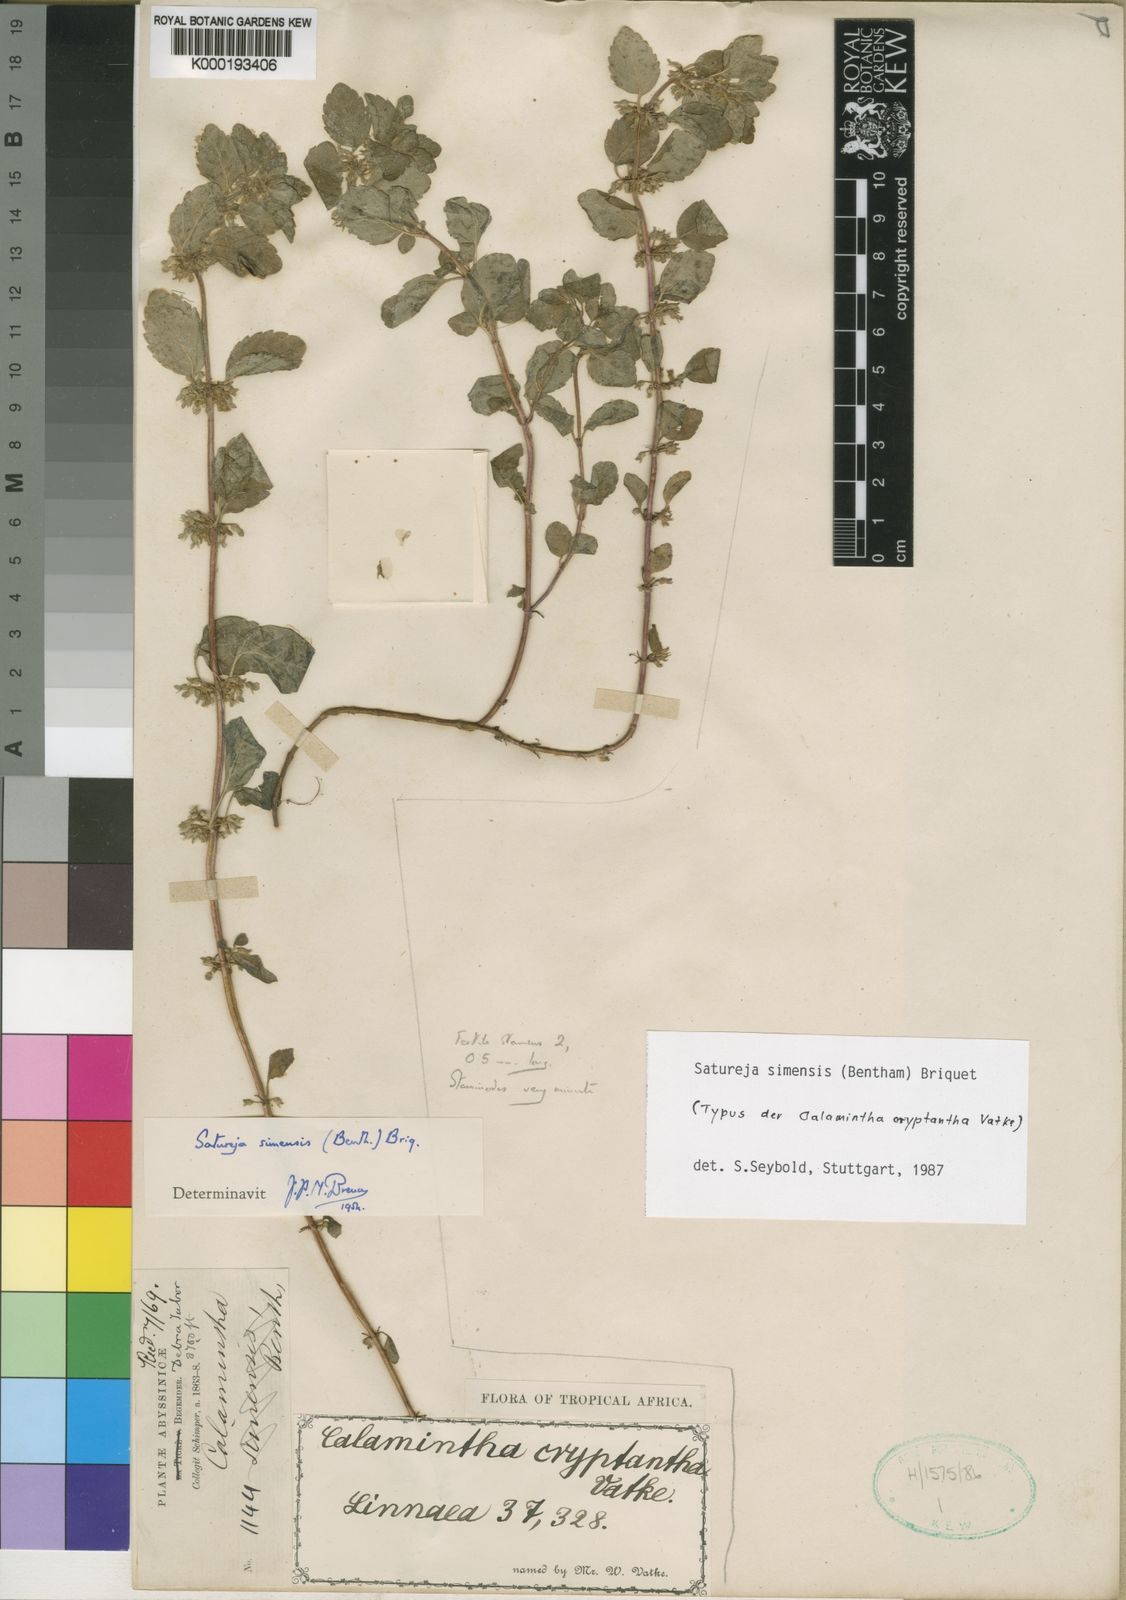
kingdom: Plantae
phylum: Tracheophyta
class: Magnoliopsida
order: Lamiales
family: Lamiaceae
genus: Clinopodium
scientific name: Clinopodium simense
